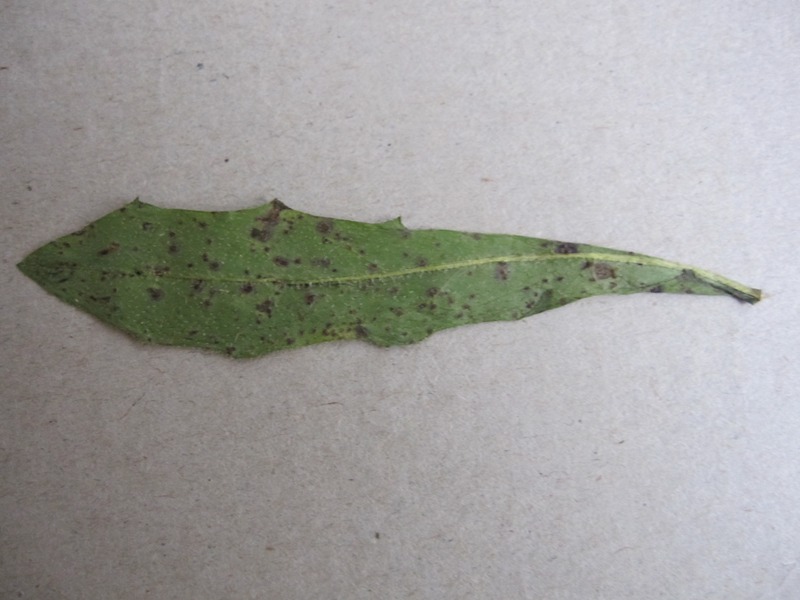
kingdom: Fungi
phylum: Basidiomycota
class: Pucciniomycetes
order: Pucciniales
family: Pucciniaceae
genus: Puccinia
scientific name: Puccinia hieracii
